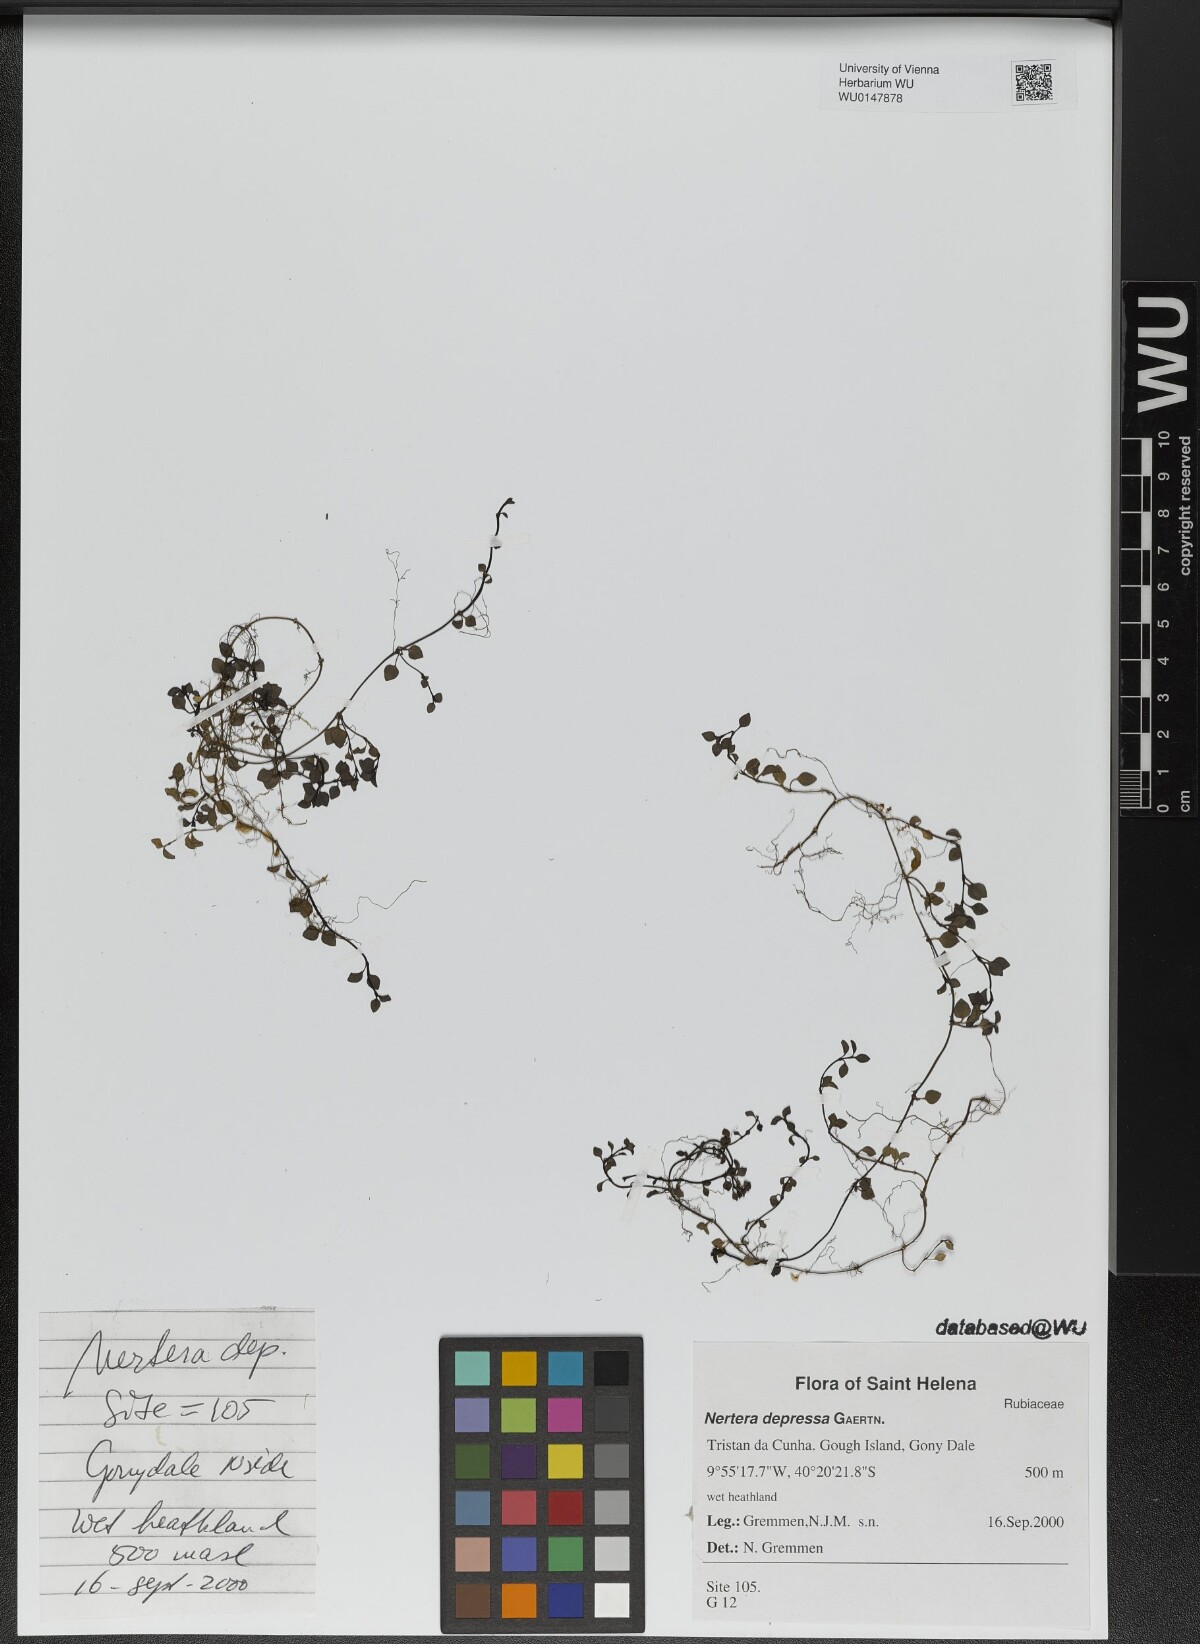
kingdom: Plantae
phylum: Tracheophyta
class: Magnoliopsida
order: Gentianales
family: Rubiaceae
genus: Nertera
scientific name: Nertera granadensis
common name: Beadplant
